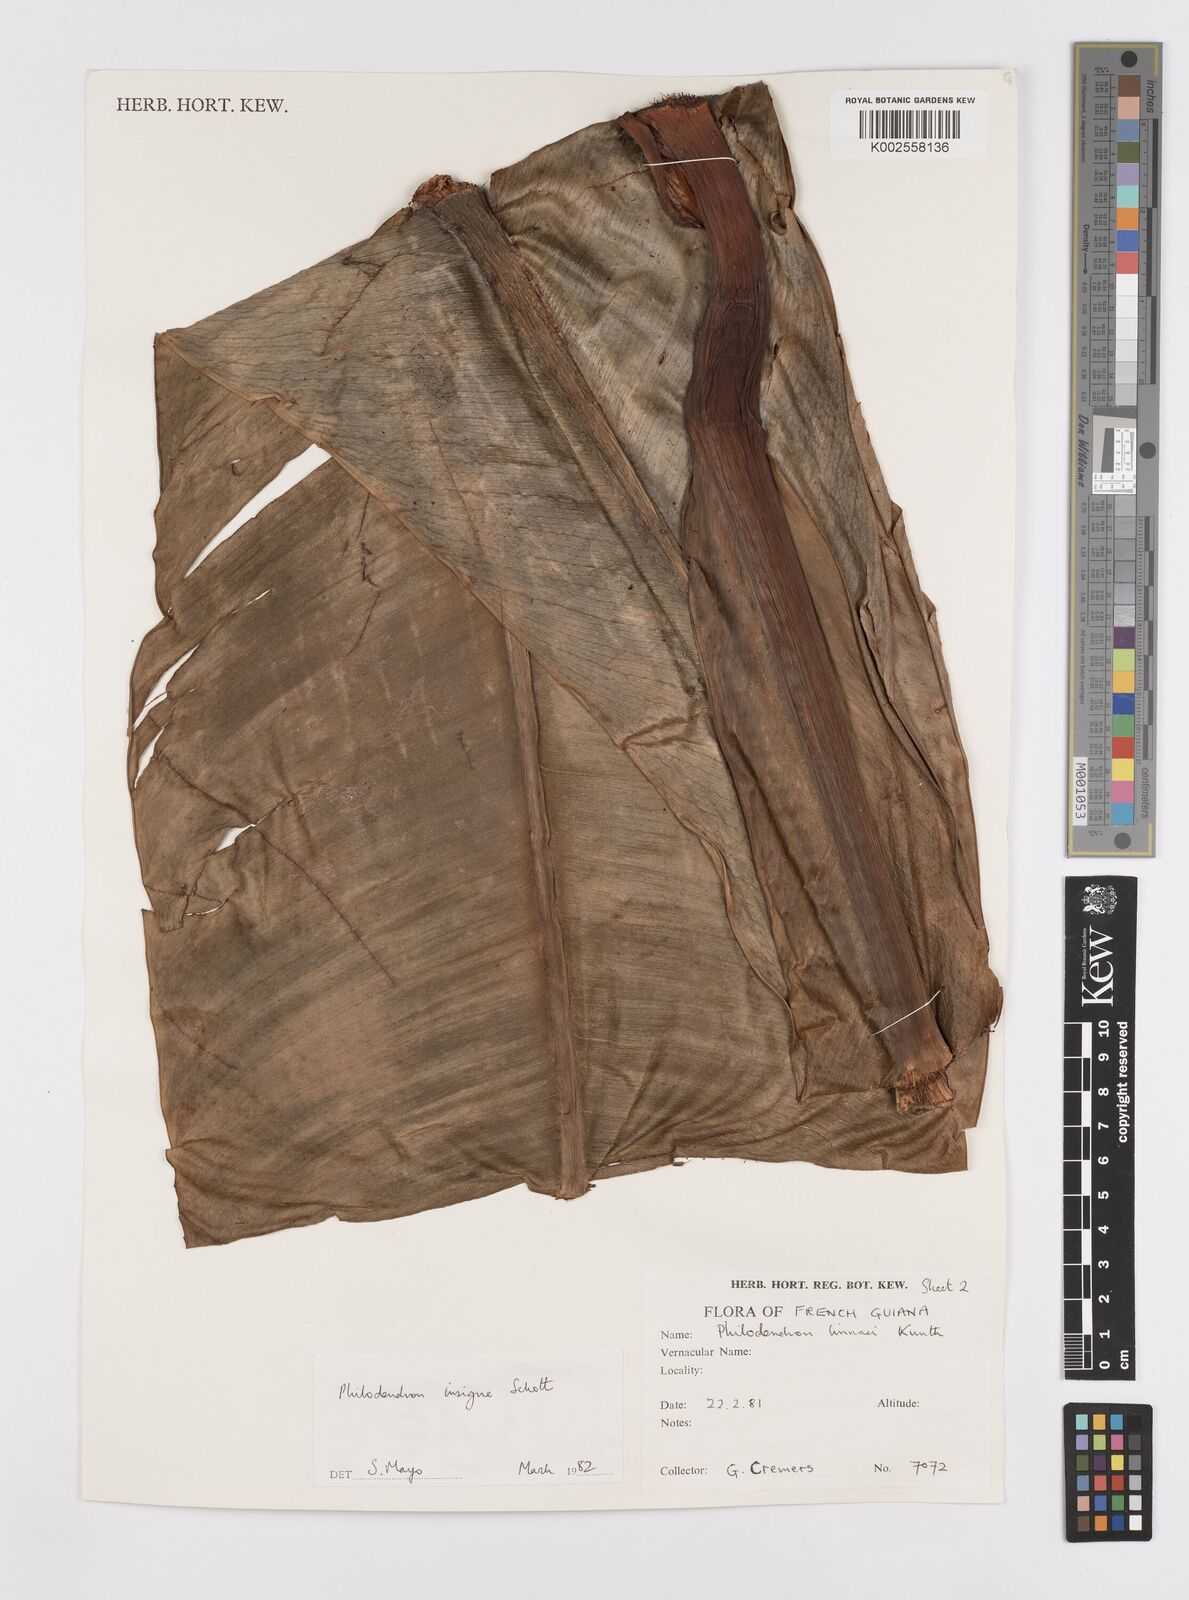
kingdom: Plantae
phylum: Tracheophyta
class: Liliopsida
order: Alismatales
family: Araceae
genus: Philodendron
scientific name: Philodendron insigne
